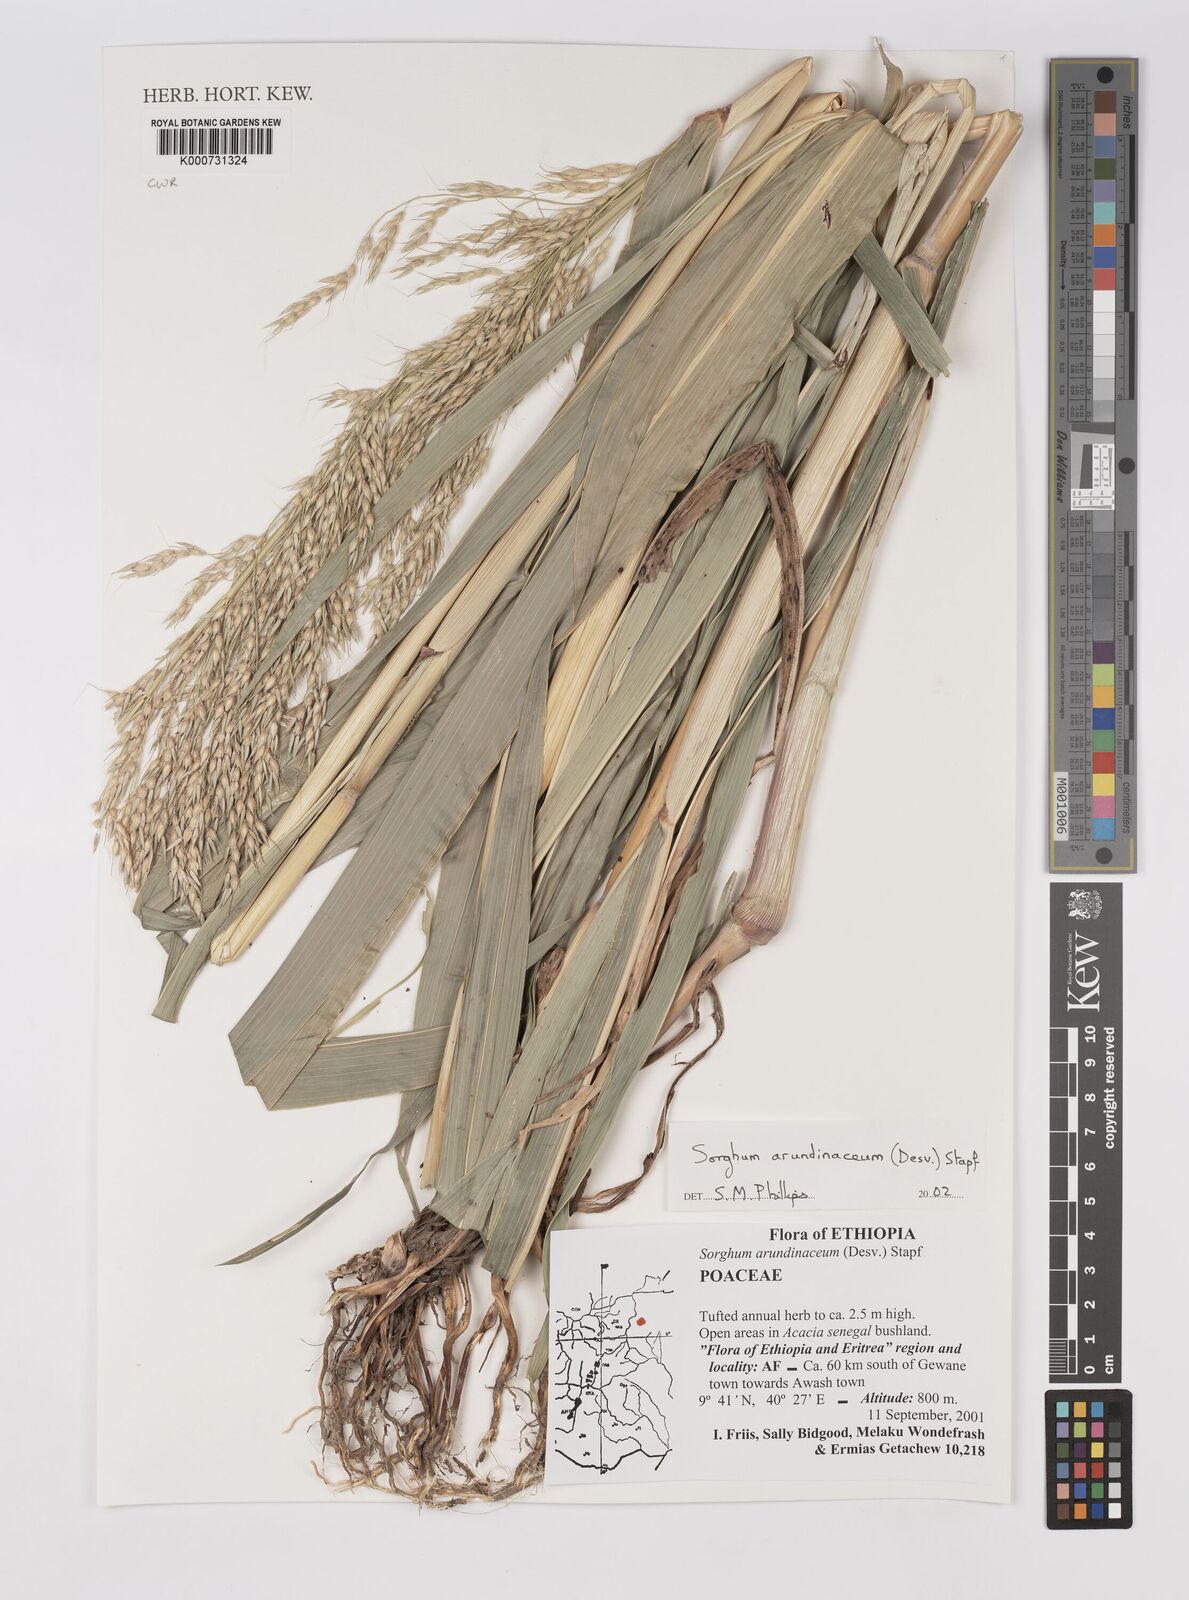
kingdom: Plantae
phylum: Tracheophyta
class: Liliopsida
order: Poales
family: Poaceae
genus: Sorghum
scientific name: Sorghum arundinaceum
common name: Sorghum
